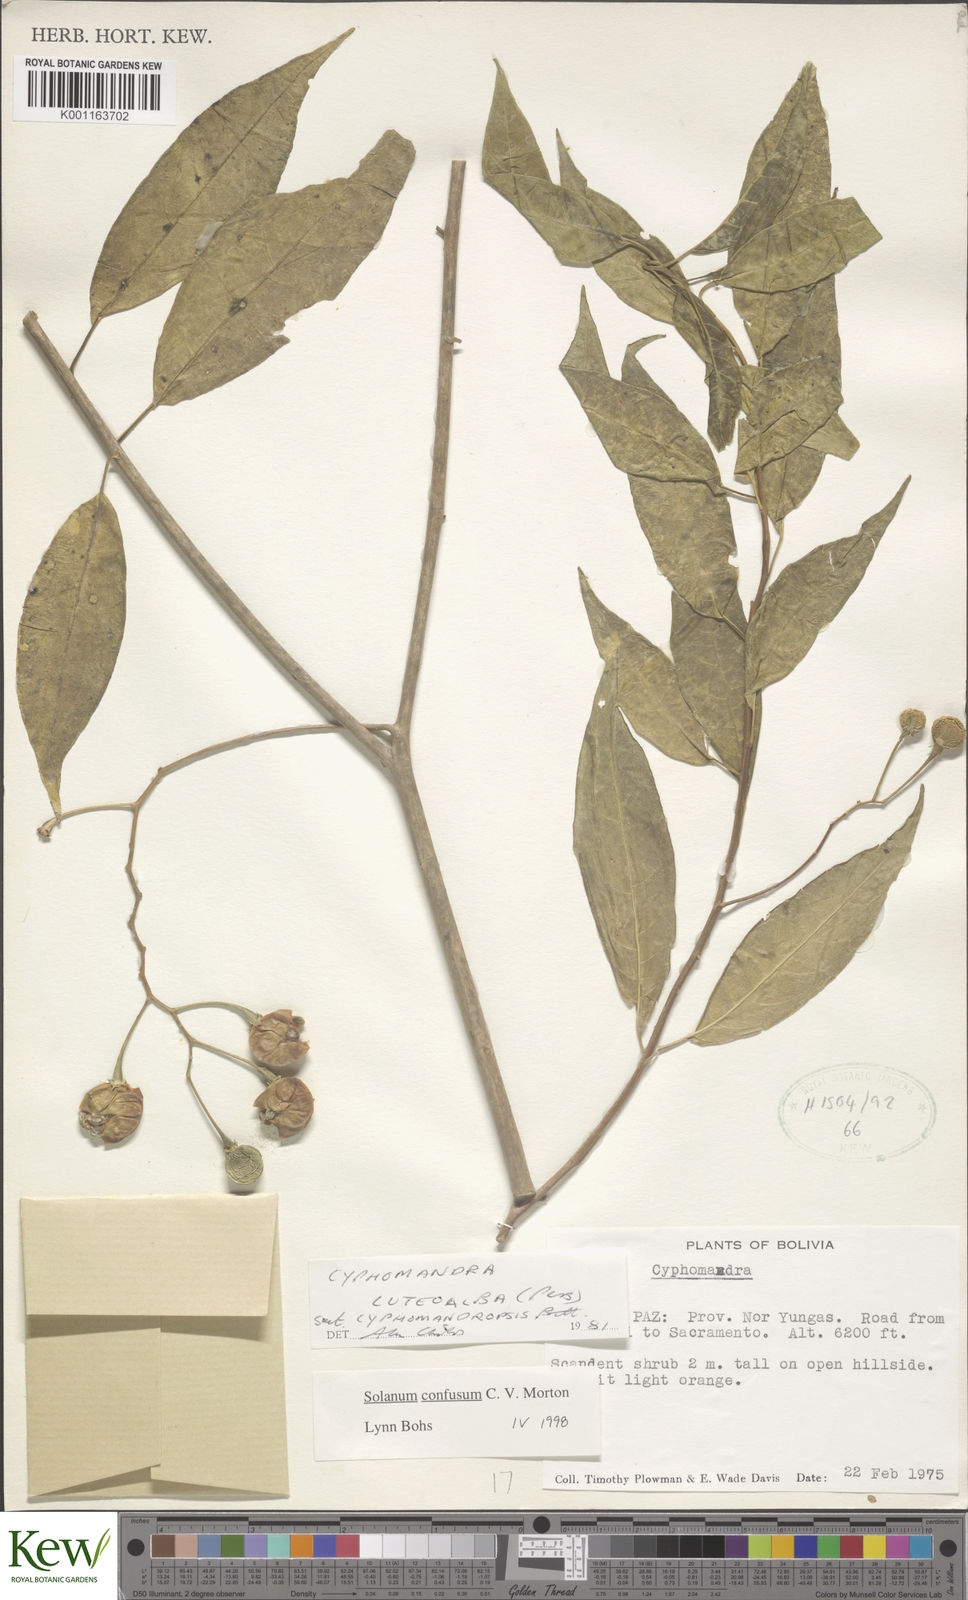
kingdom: Plantae
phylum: Tracheophyta
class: Magnoliopsida
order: Solanales
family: Solanaceae
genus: Solanum
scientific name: Solanum confusum
